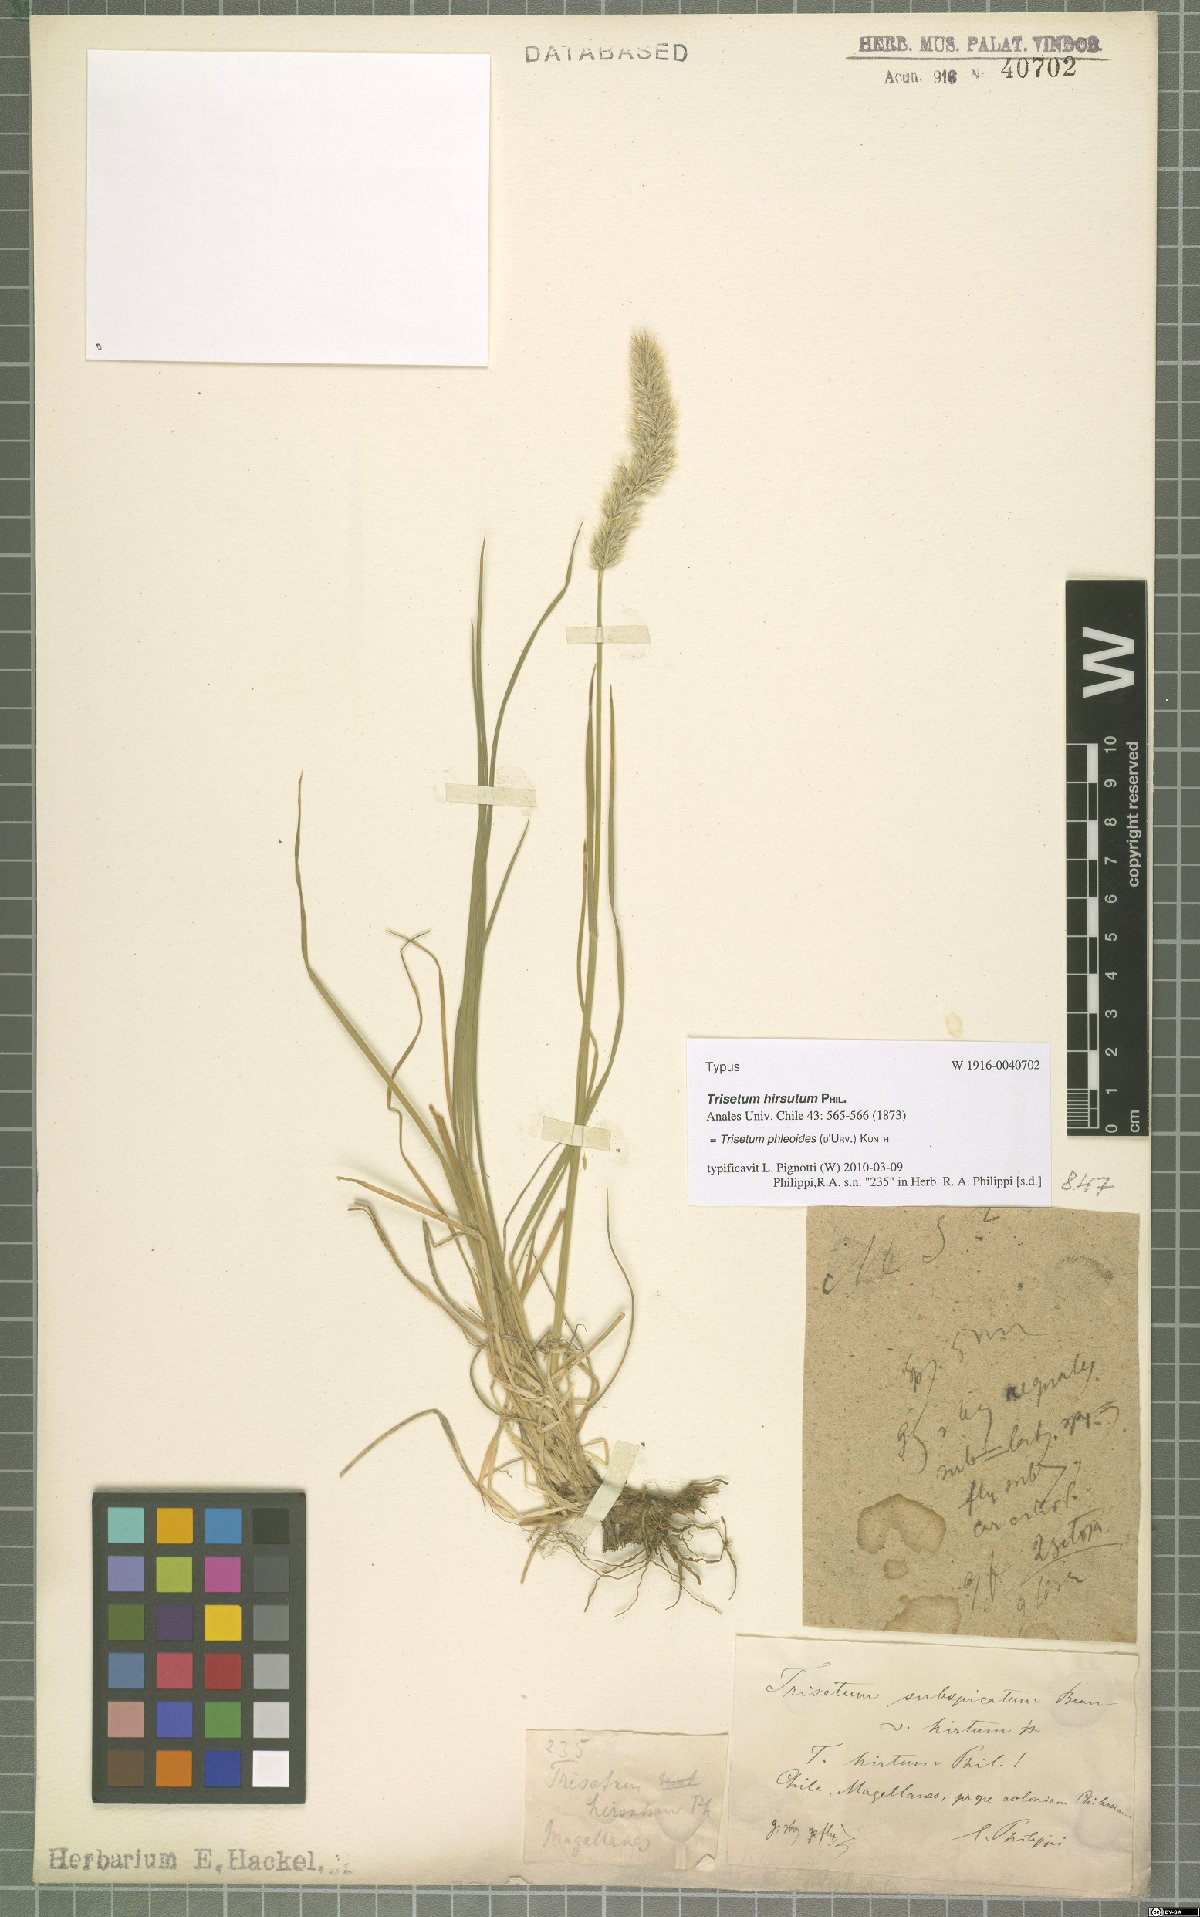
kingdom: Plantae
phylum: Tracheophyta
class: Liliopsida
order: Poales
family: Poaceae
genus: Koeleria
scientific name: Koeleria spicata
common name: Mountain trisetum
